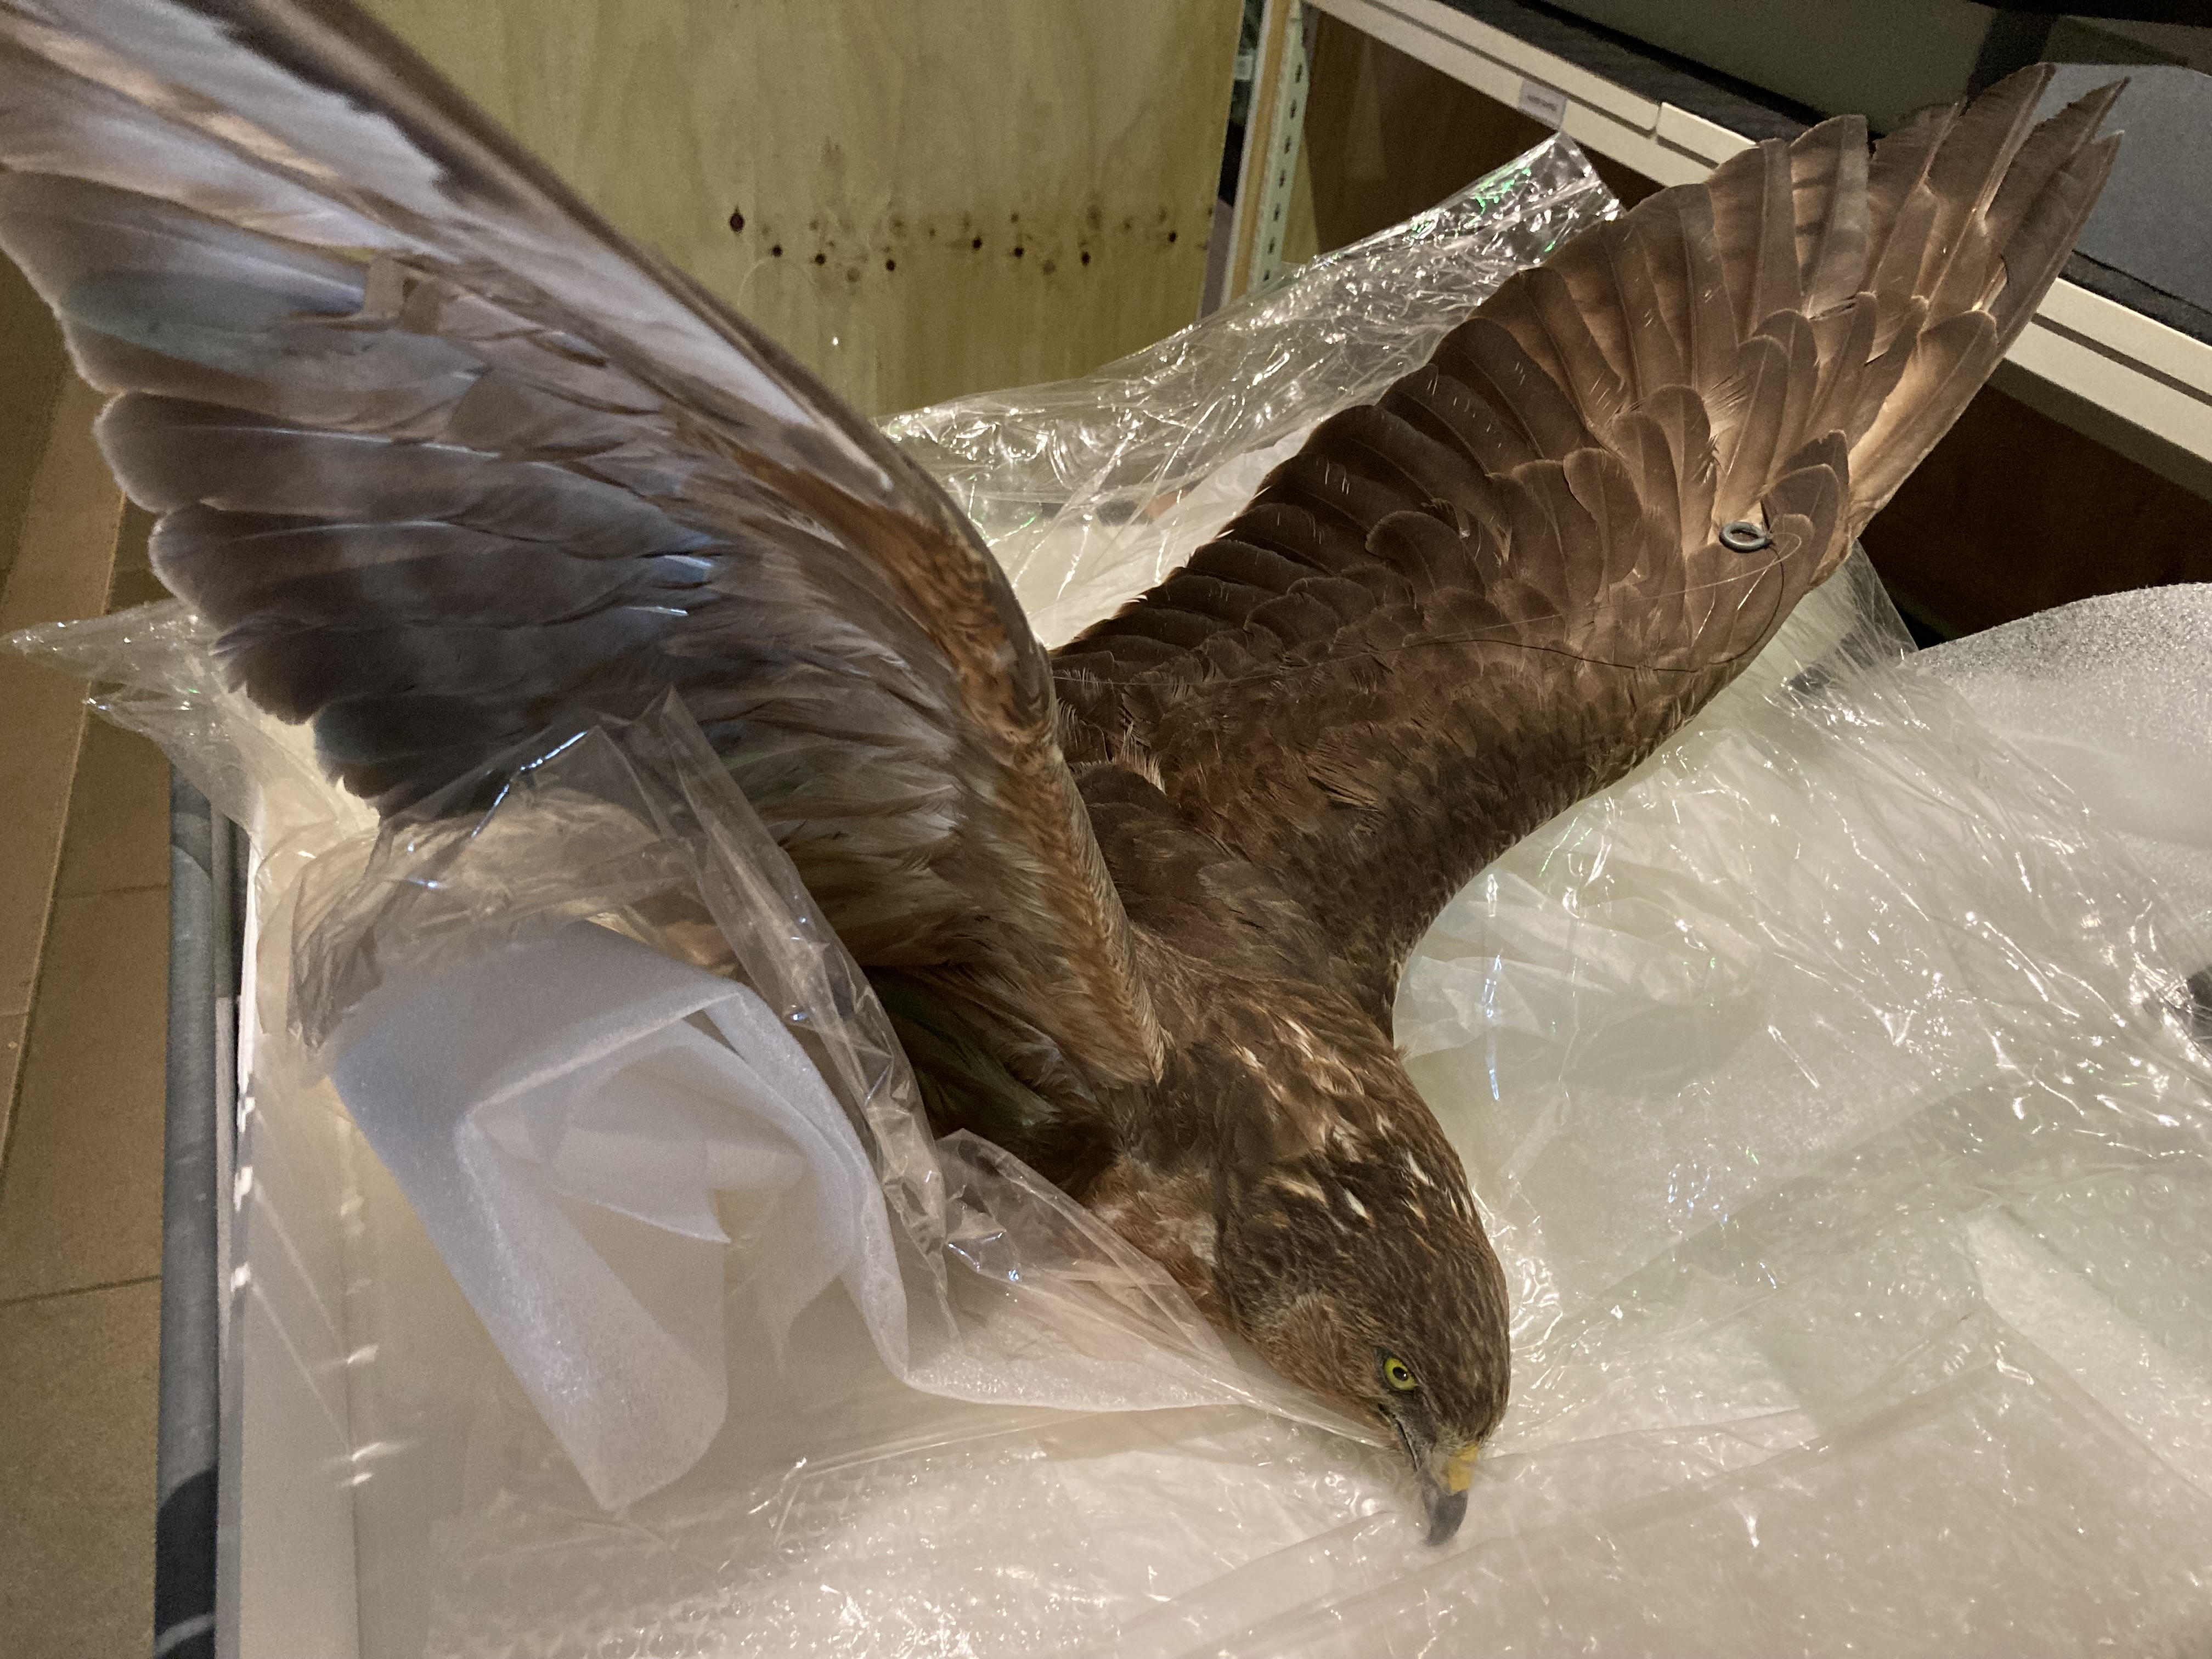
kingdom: Animalia
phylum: Chordata
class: Aves
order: Accipitriformes
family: Accipitridae
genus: Circus
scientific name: Circus approximans
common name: Swamp harrier
